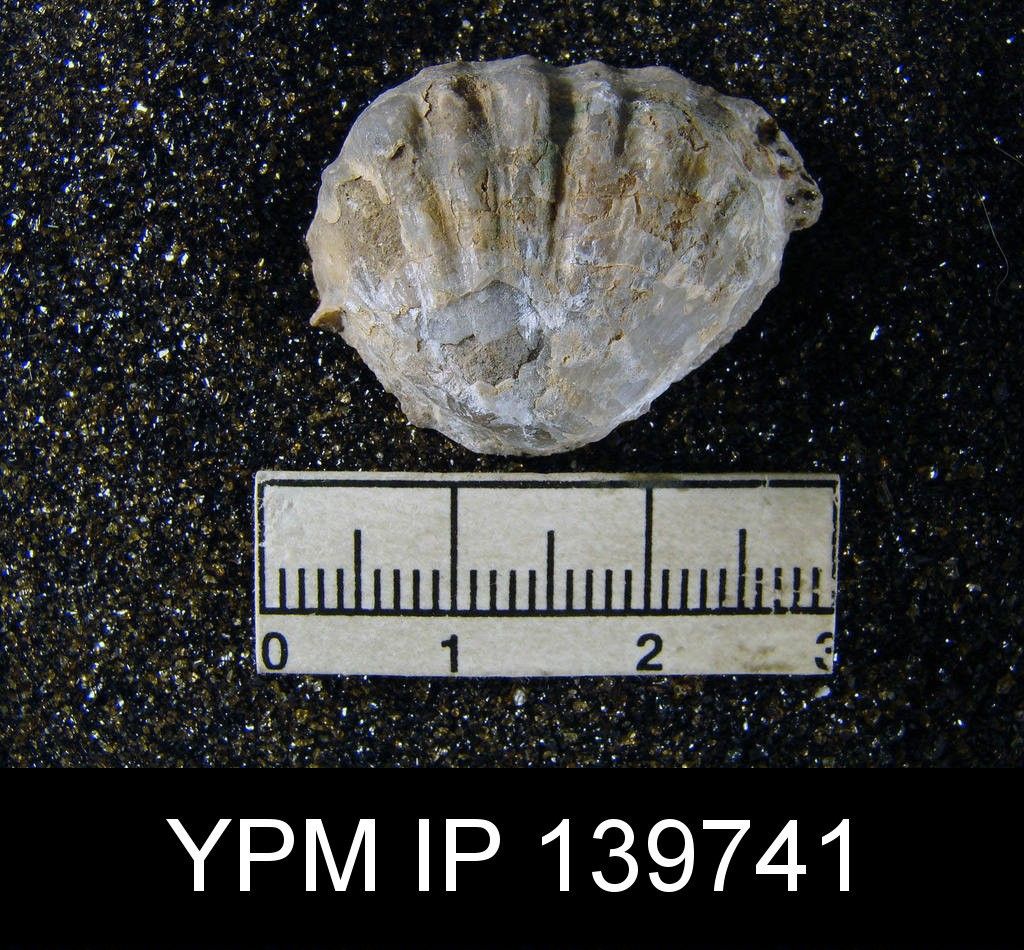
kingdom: Animalia
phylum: Brachiopoda
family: Oldhaminidae
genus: Kiangsiella
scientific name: Kiangsiella Streptorhynchus pectiniformis
